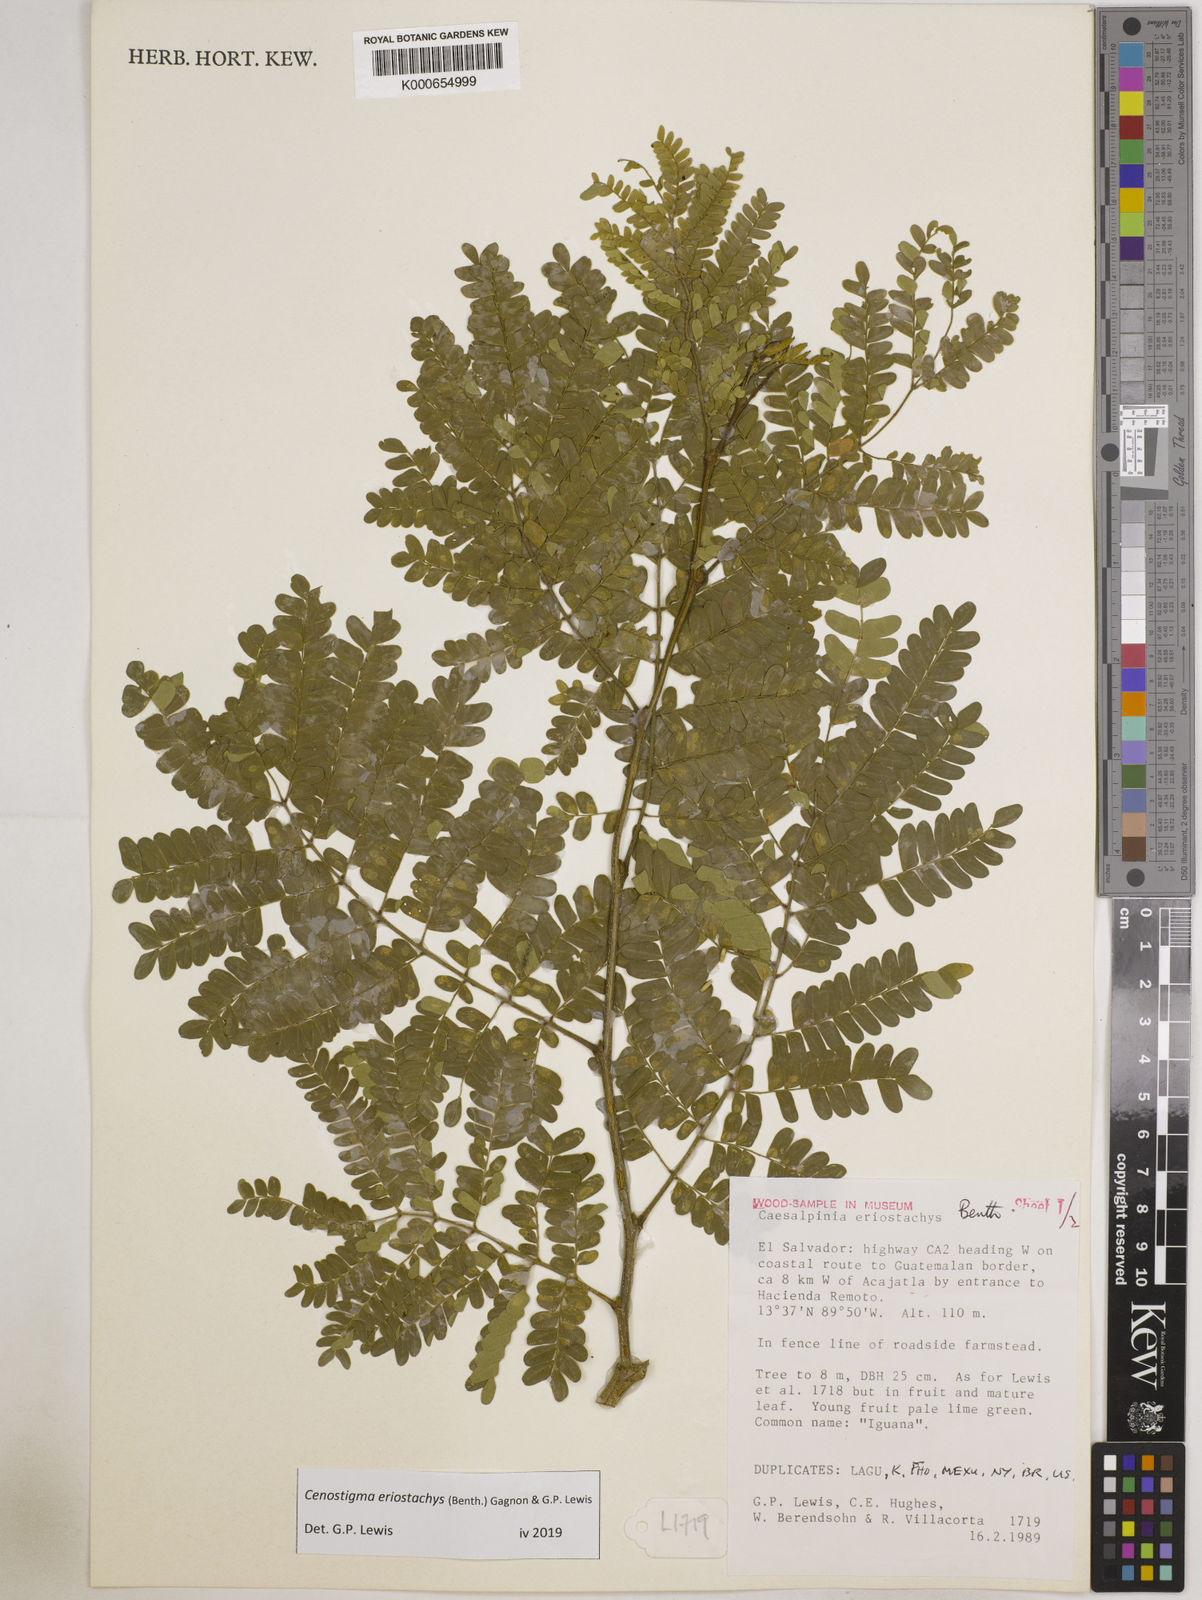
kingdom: Plantae
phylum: Tracheophyta
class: Magnoliopsida
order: Fabales
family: Fabaceae
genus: Cenostigma
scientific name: Cenostigma eriostachys
